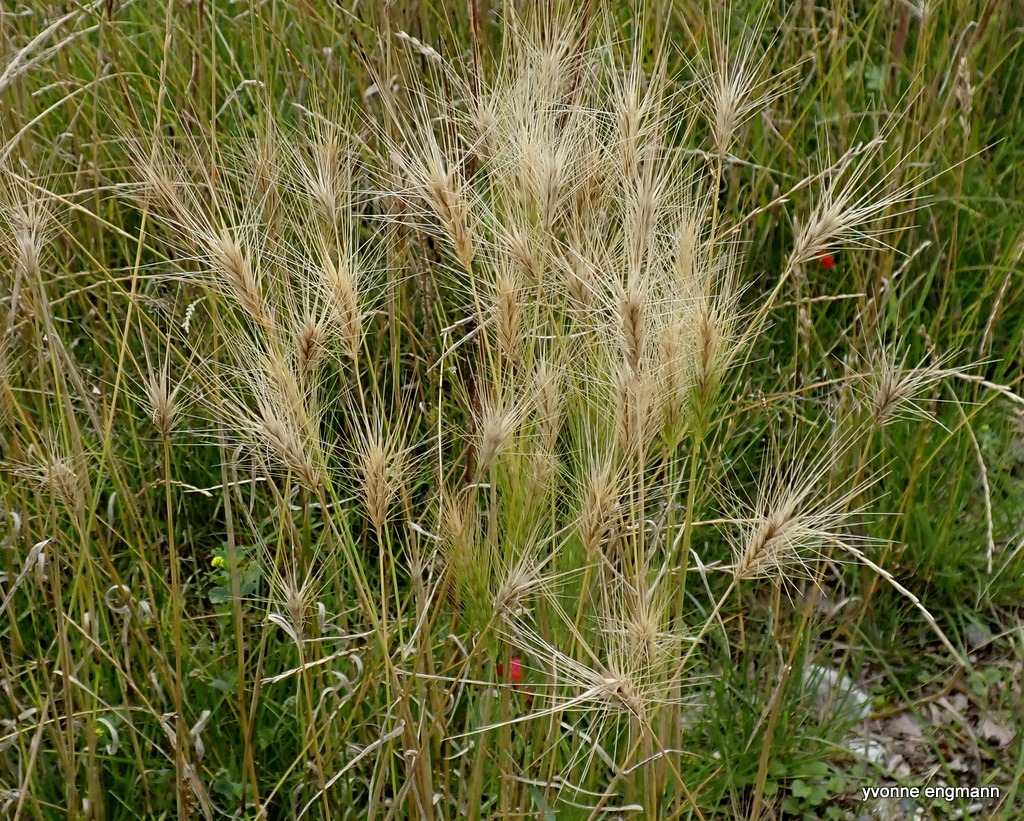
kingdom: Plantae
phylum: Tracheophyta
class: Liliopsida
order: Poales
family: Poaceae
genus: Hordeum
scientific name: Hordeum murinum
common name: Gold byg
